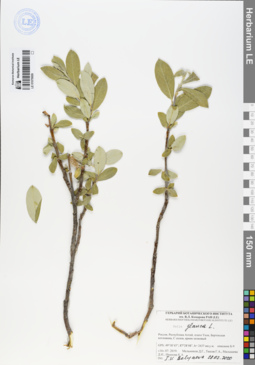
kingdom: Plantae
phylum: Tracheophyta
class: Magnoliopsida
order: Malpighiales
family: Salicaceae
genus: Salix
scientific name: Salix glauca
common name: Glaucous willow
